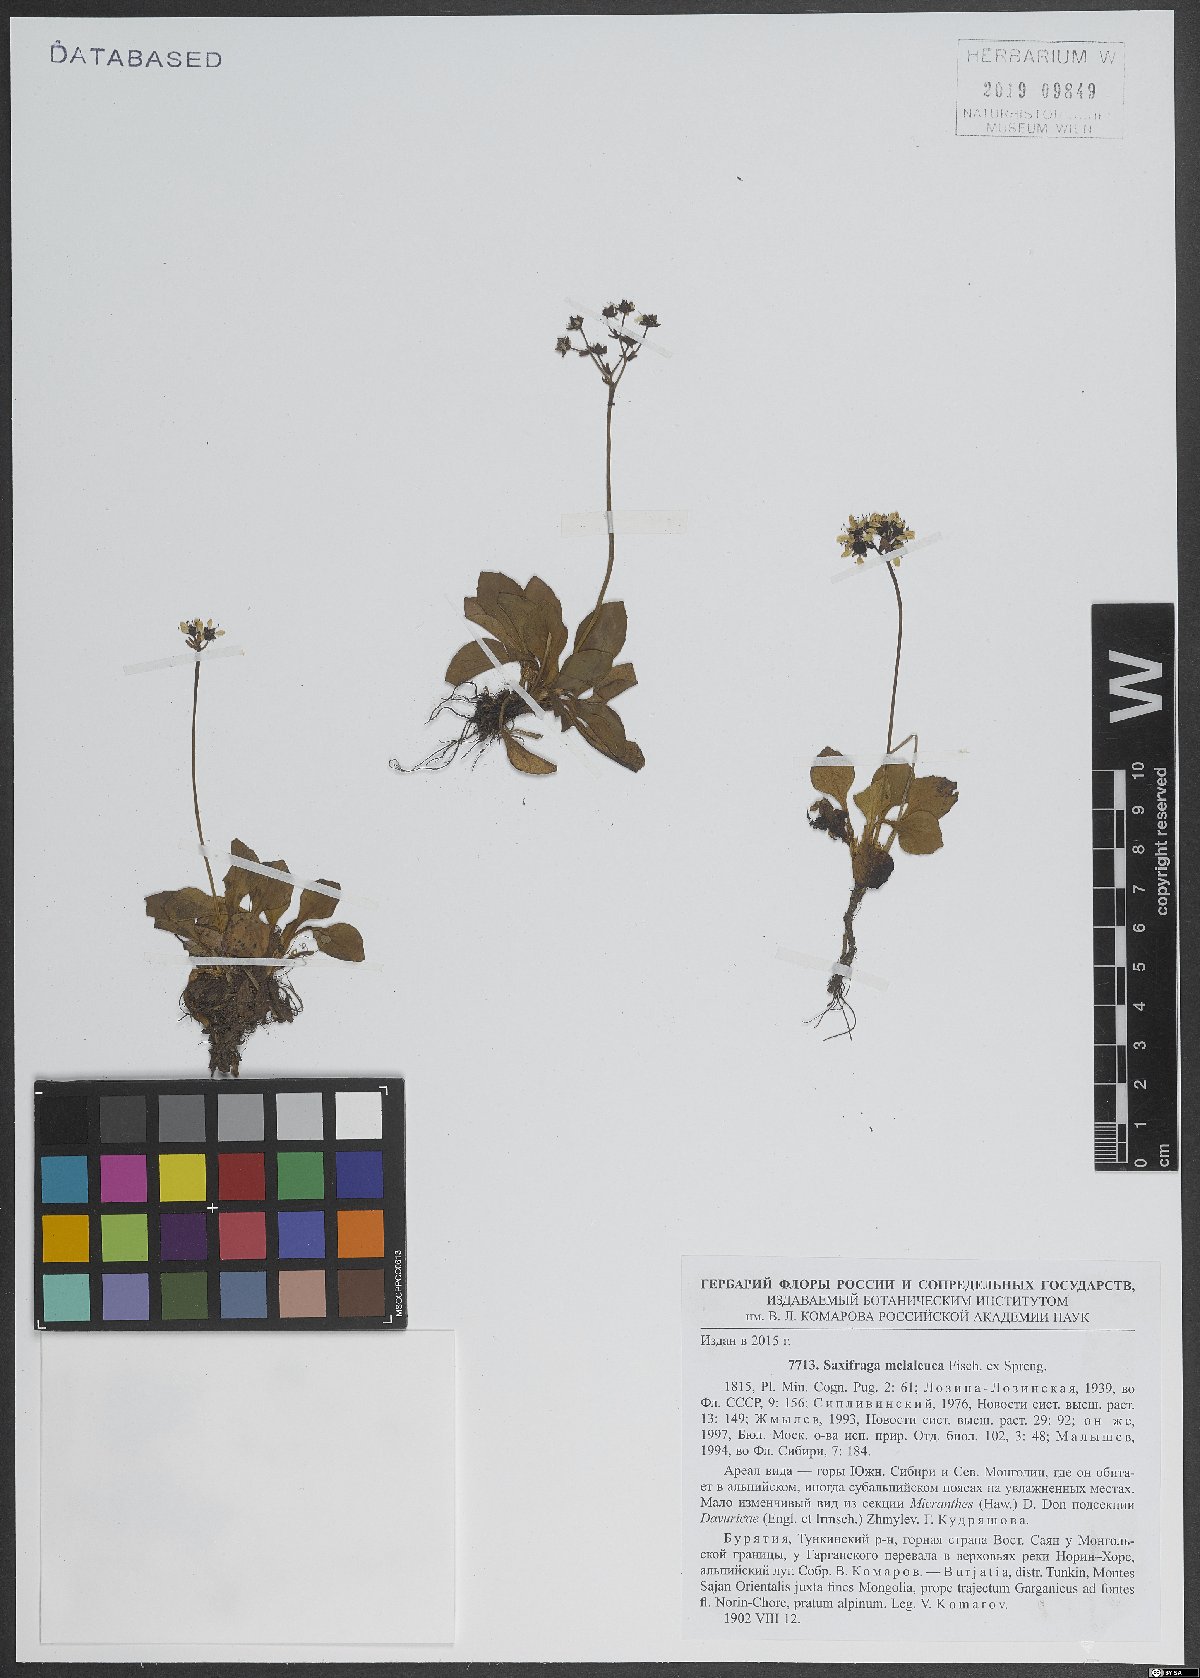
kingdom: Plantae
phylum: Tracheophyta
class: Magnoliopsida
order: Saxifragales
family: Saxifragaceae
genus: Micranthes
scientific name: Micranthes melaleuca
